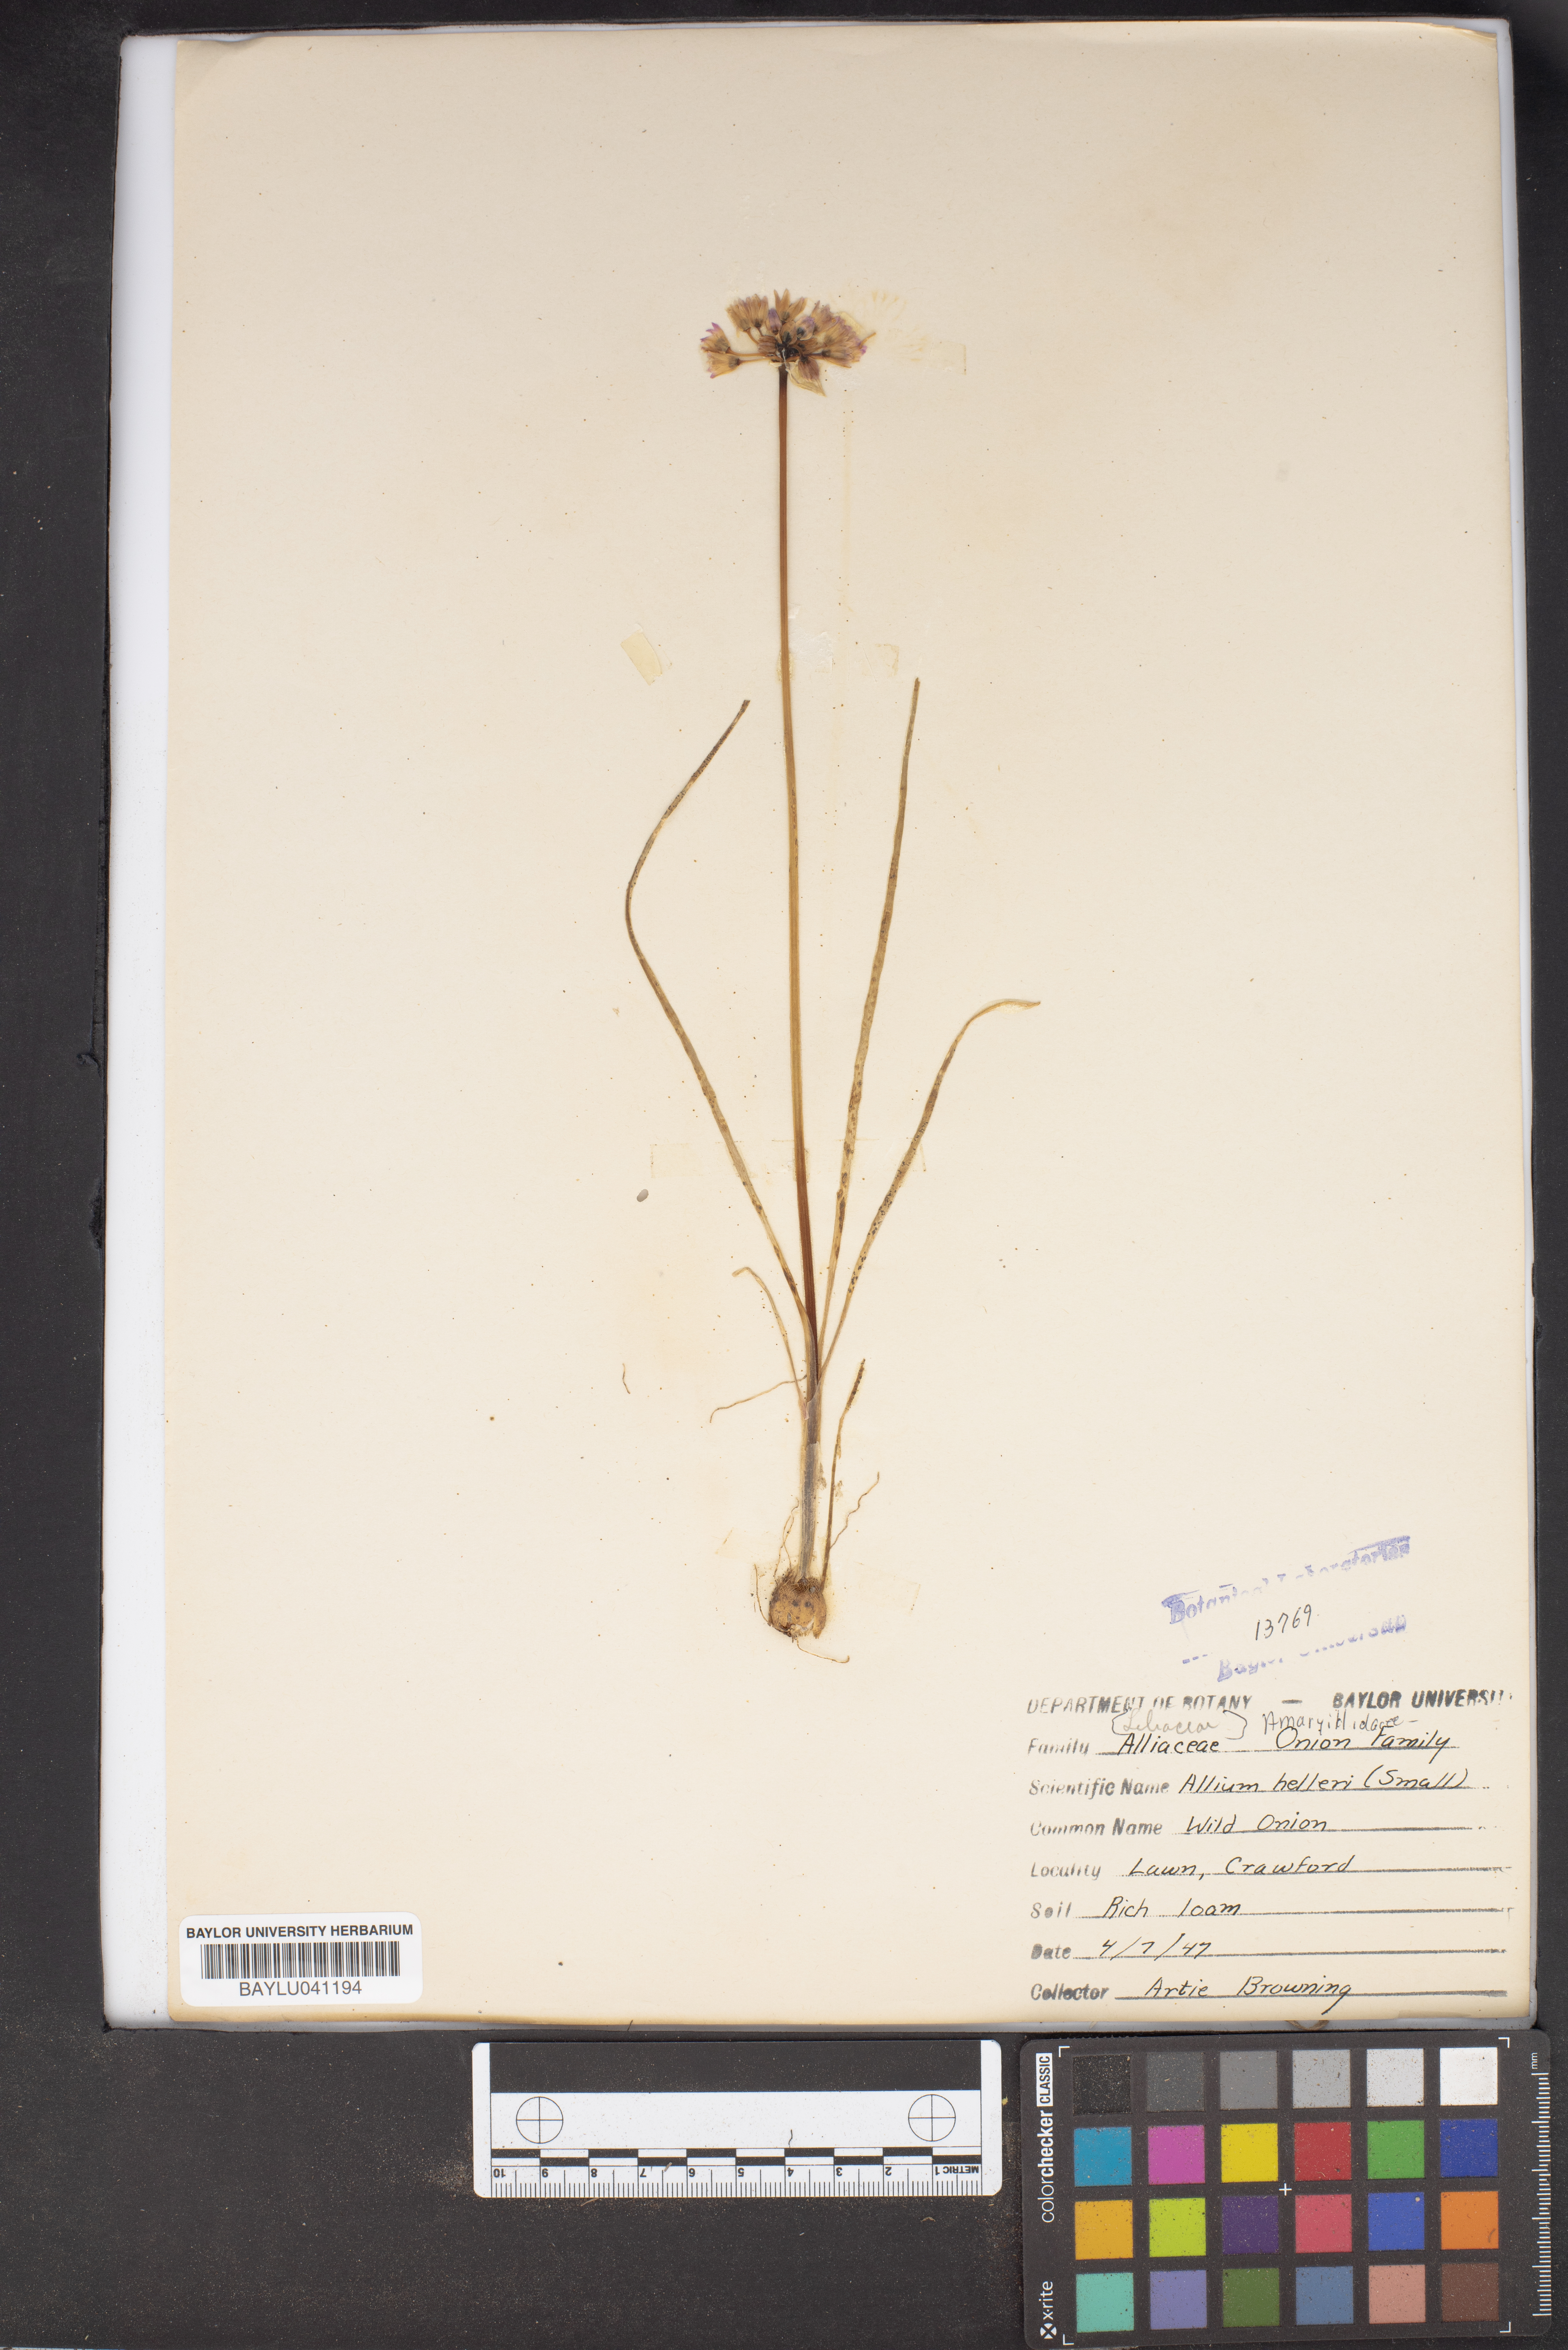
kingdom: Plantae
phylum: Tracheophyta
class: Liliopsida
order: Asparagales
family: Amaryllidaceae
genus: Allium
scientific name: Allium drummondii
